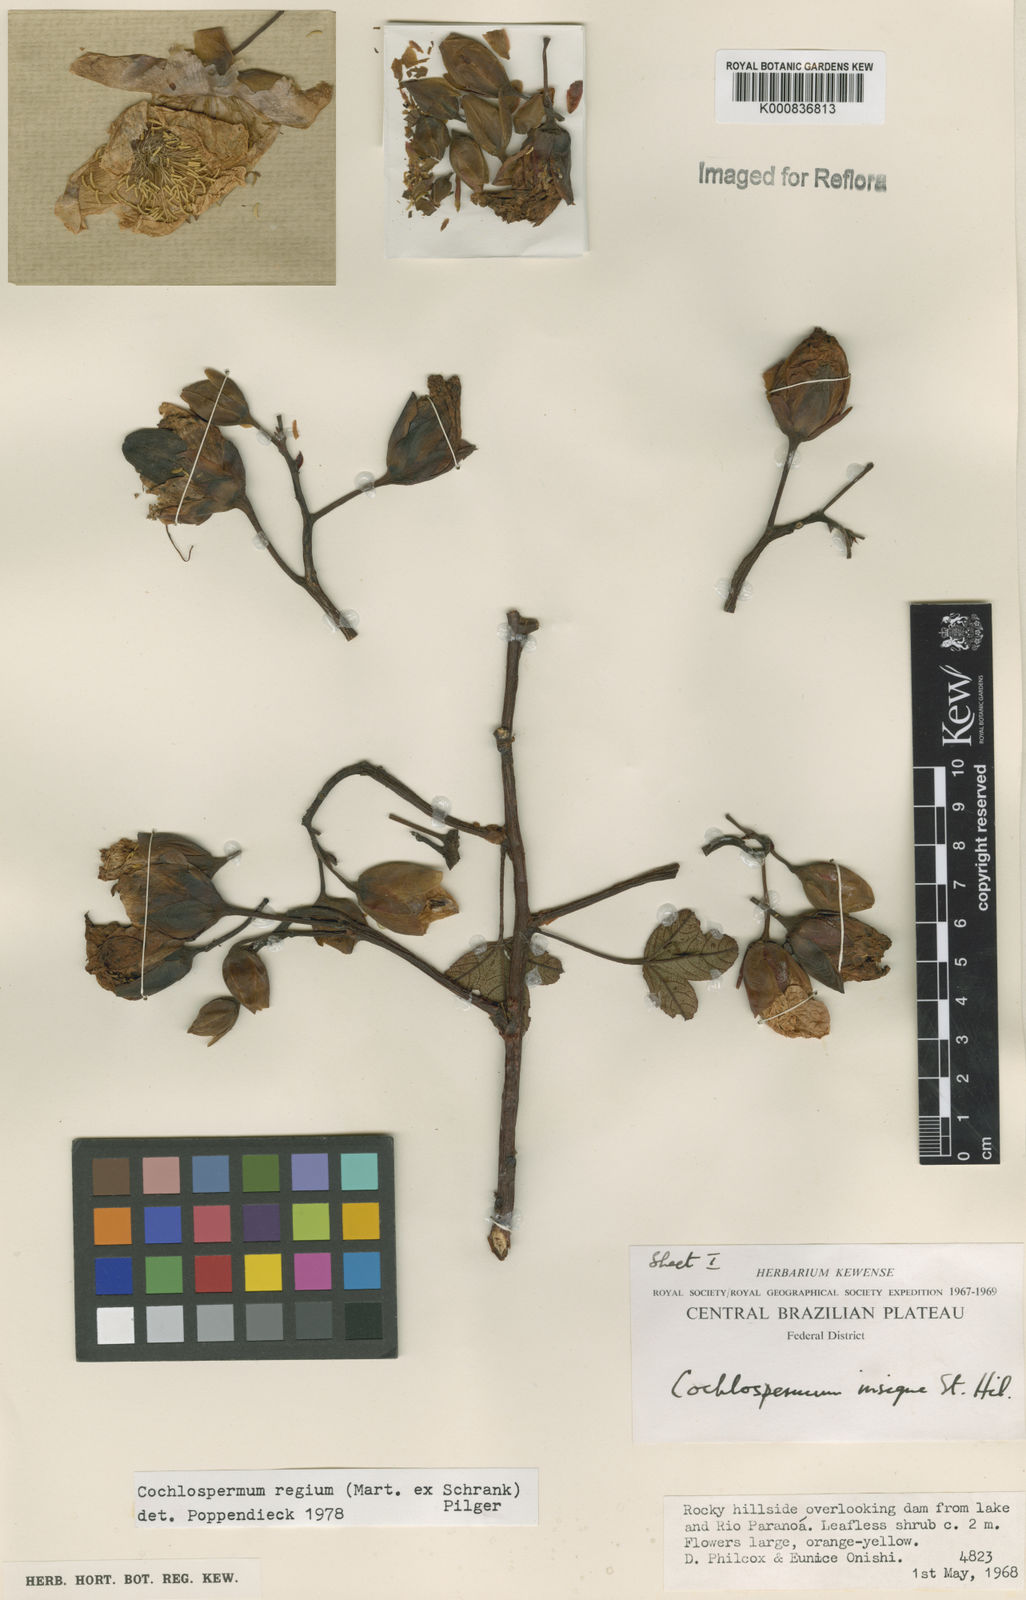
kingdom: Plantae
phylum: Tracheophyta
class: Magnoliopsida
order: Malvales
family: Cochlospermaceae
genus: Cochlospermum
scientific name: Cochlospermum regium
